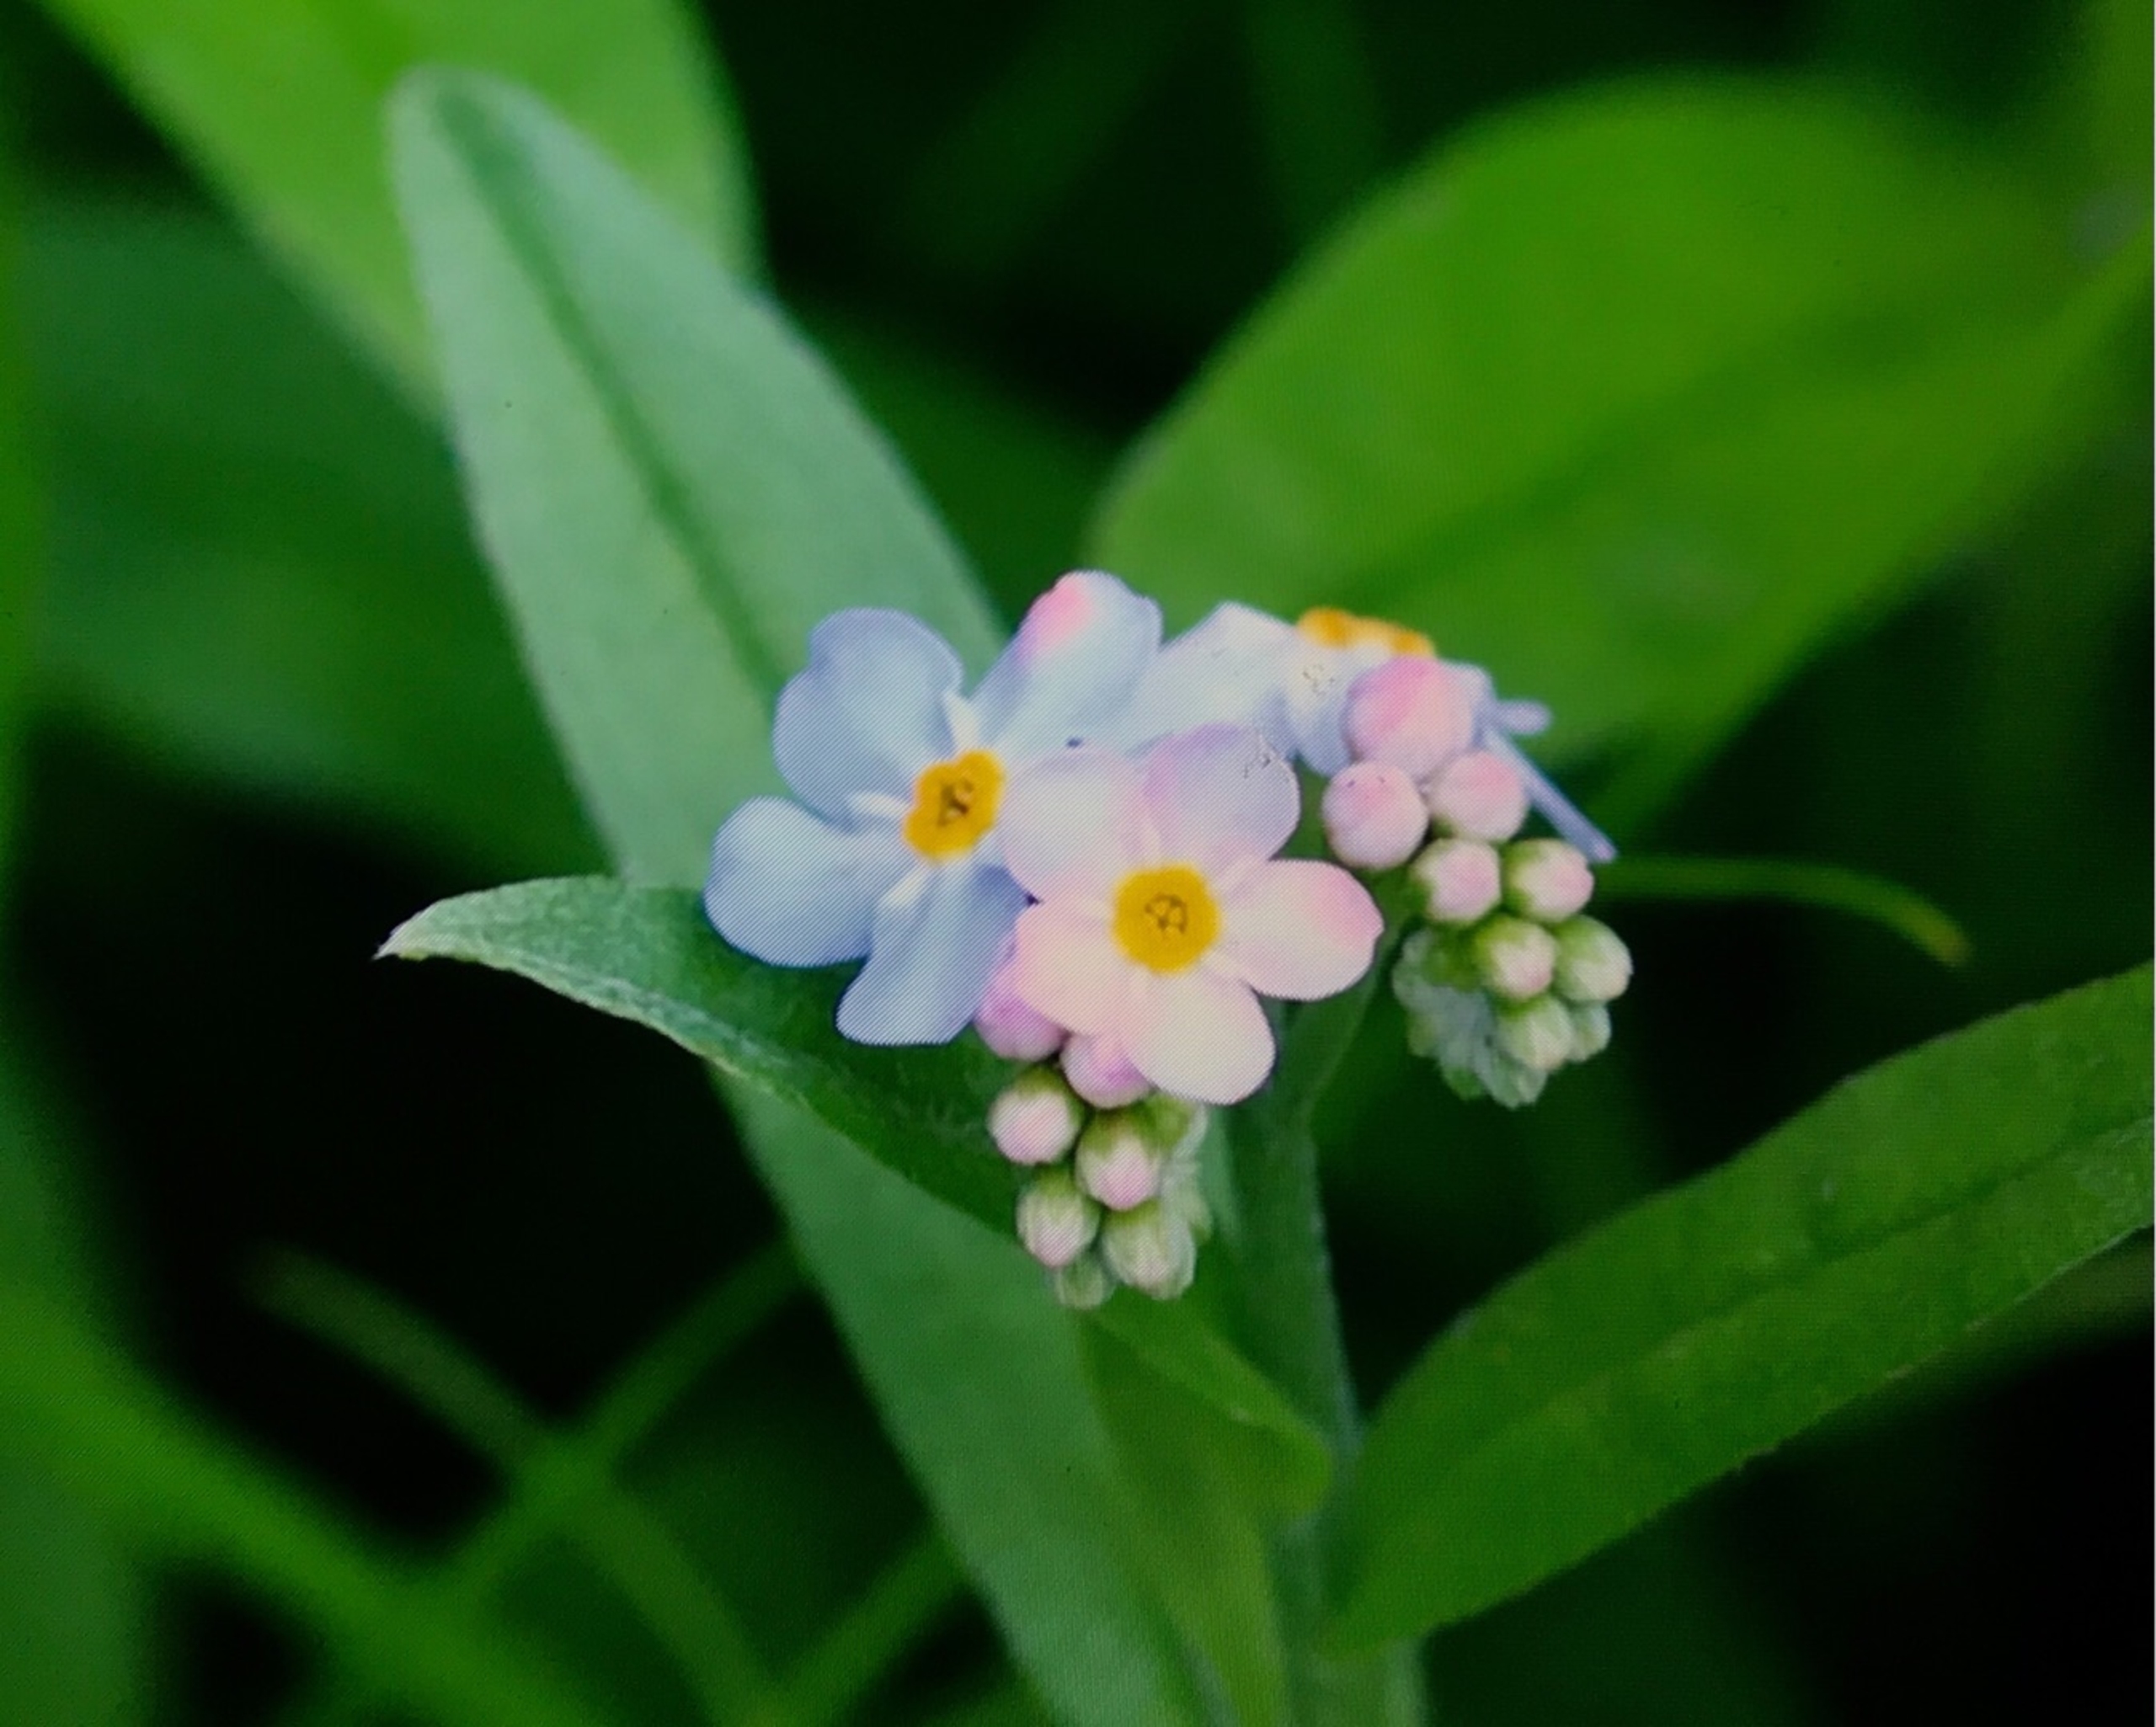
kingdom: Plantae
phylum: Tracheophyta
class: Magnoliopsida
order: Boraginales
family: Boraginaceae
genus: Myosotis
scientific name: Myosotis scorpioides
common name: Eng-forglemmigej
